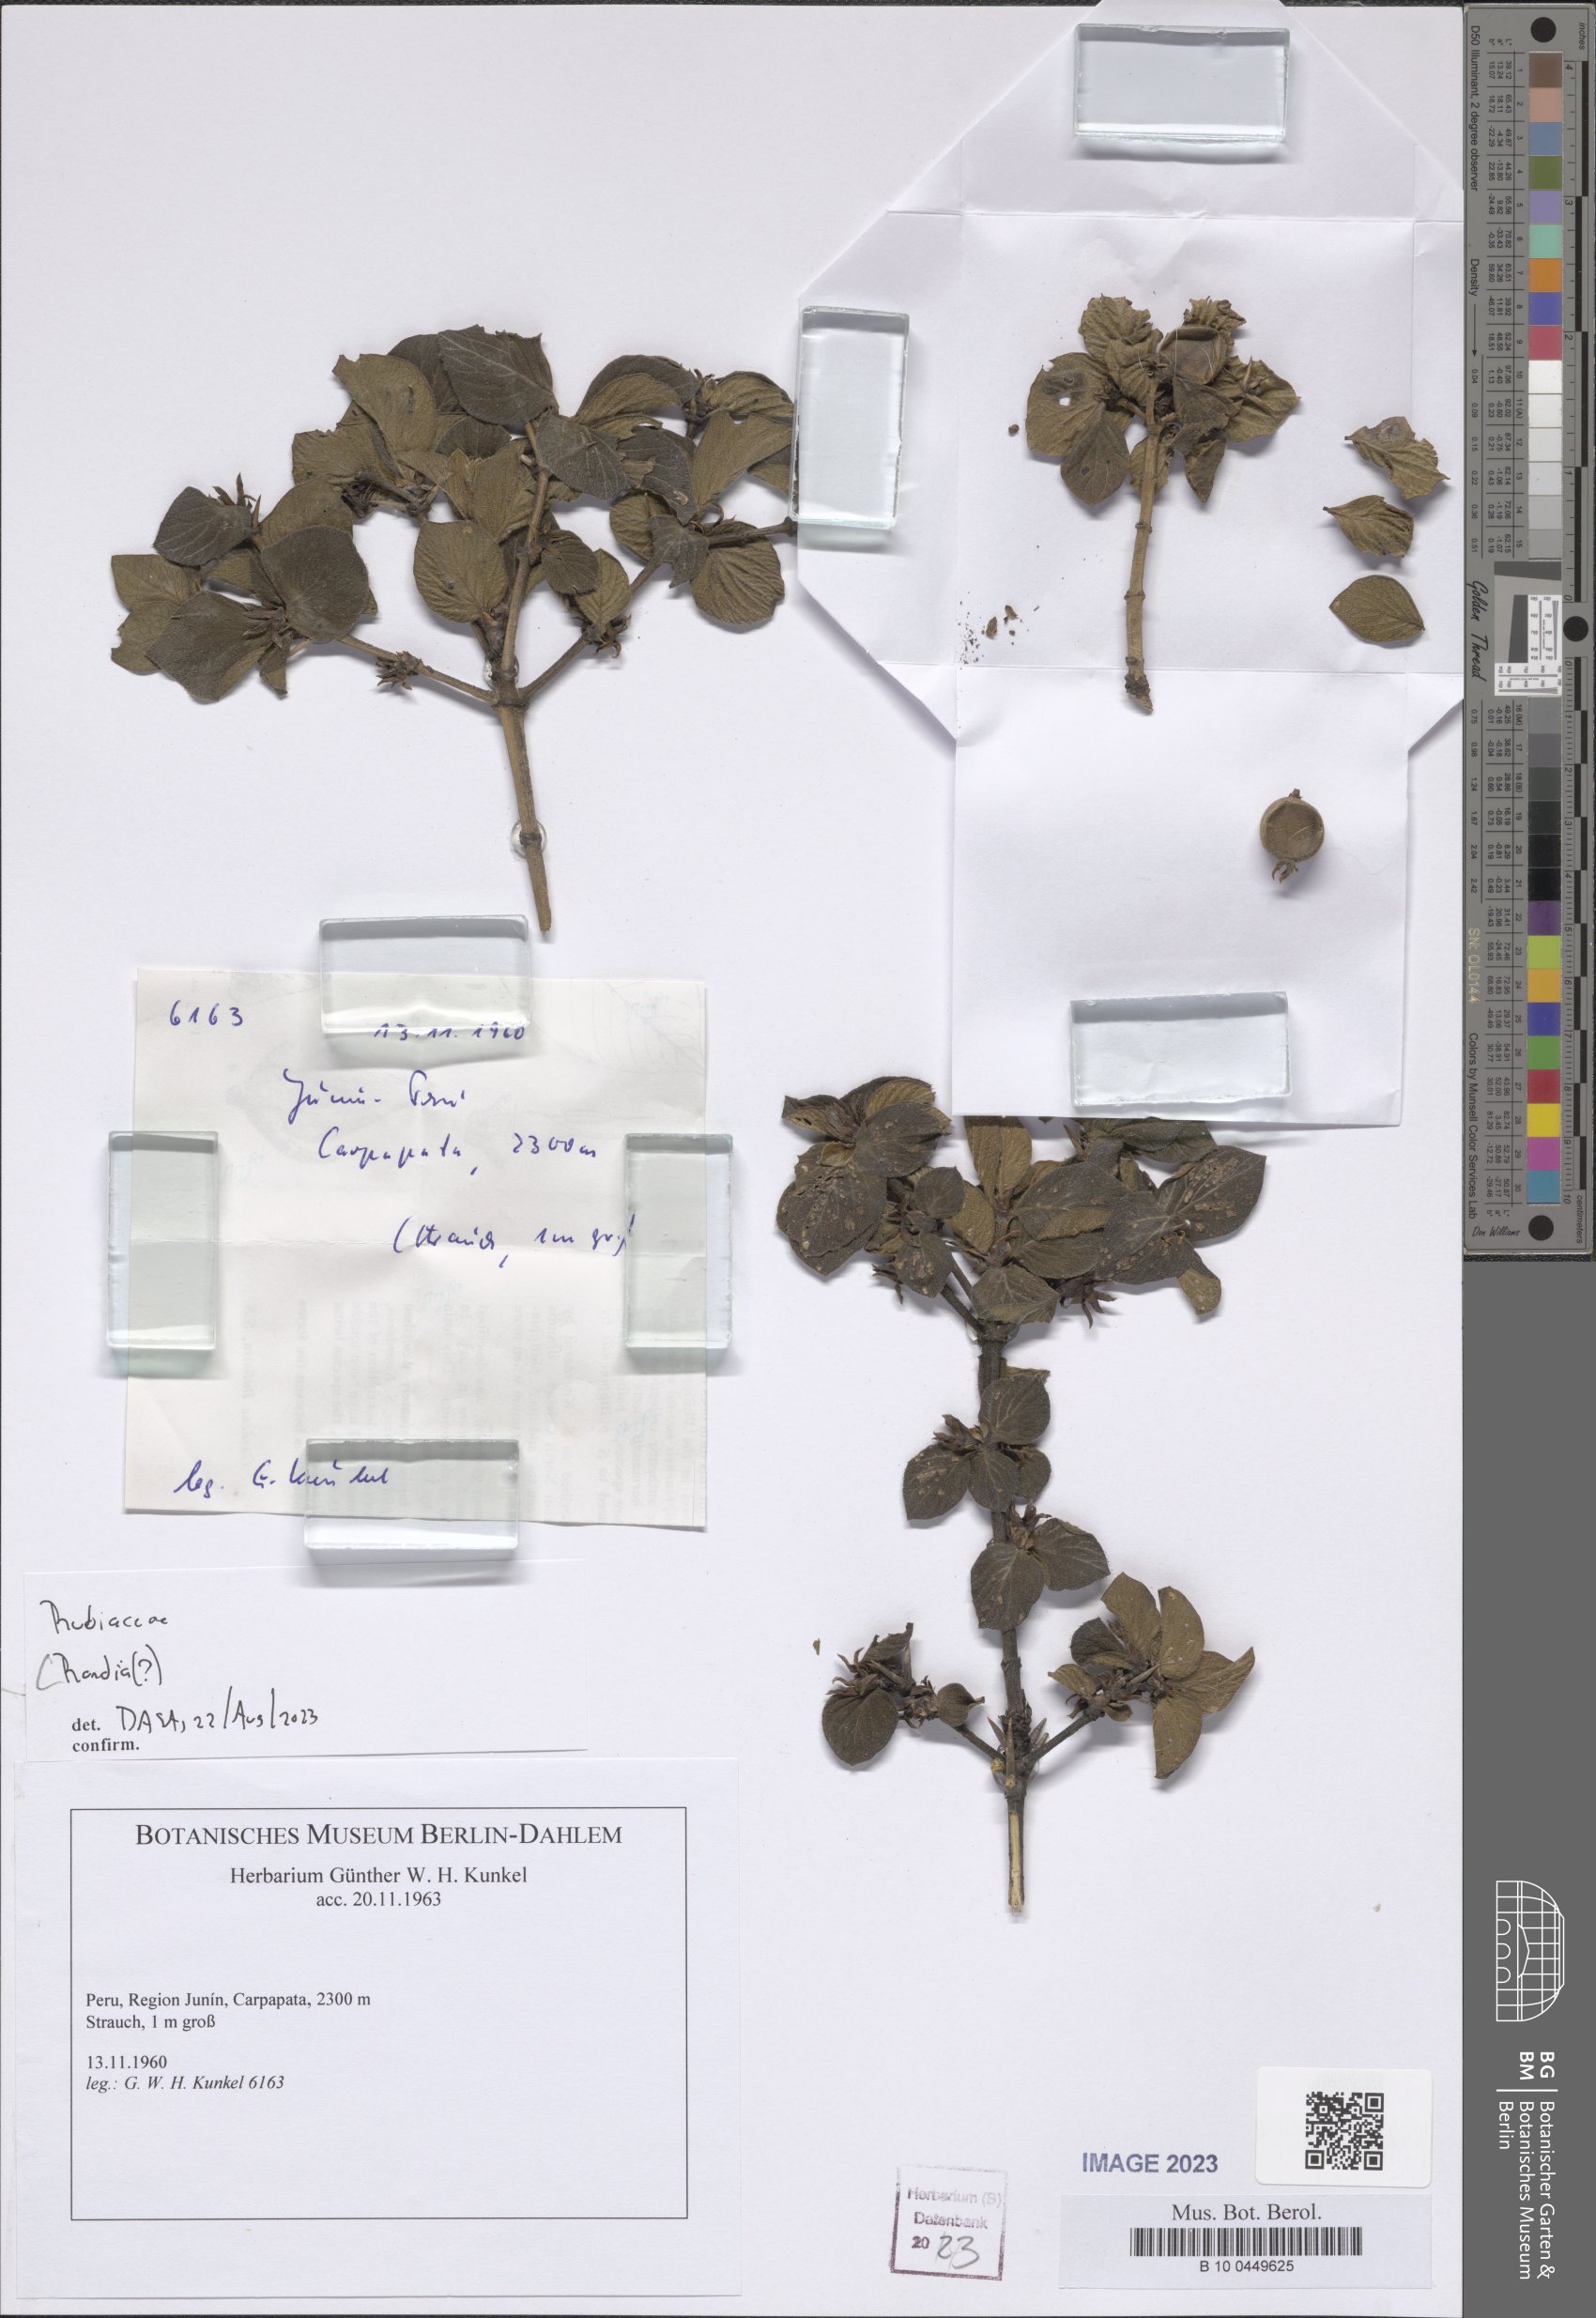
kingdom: Plantae
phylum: Tracheophyta
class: Magnoliopsida
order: Gentianales
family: Rubiaceae
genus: Randia
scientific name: Randia
